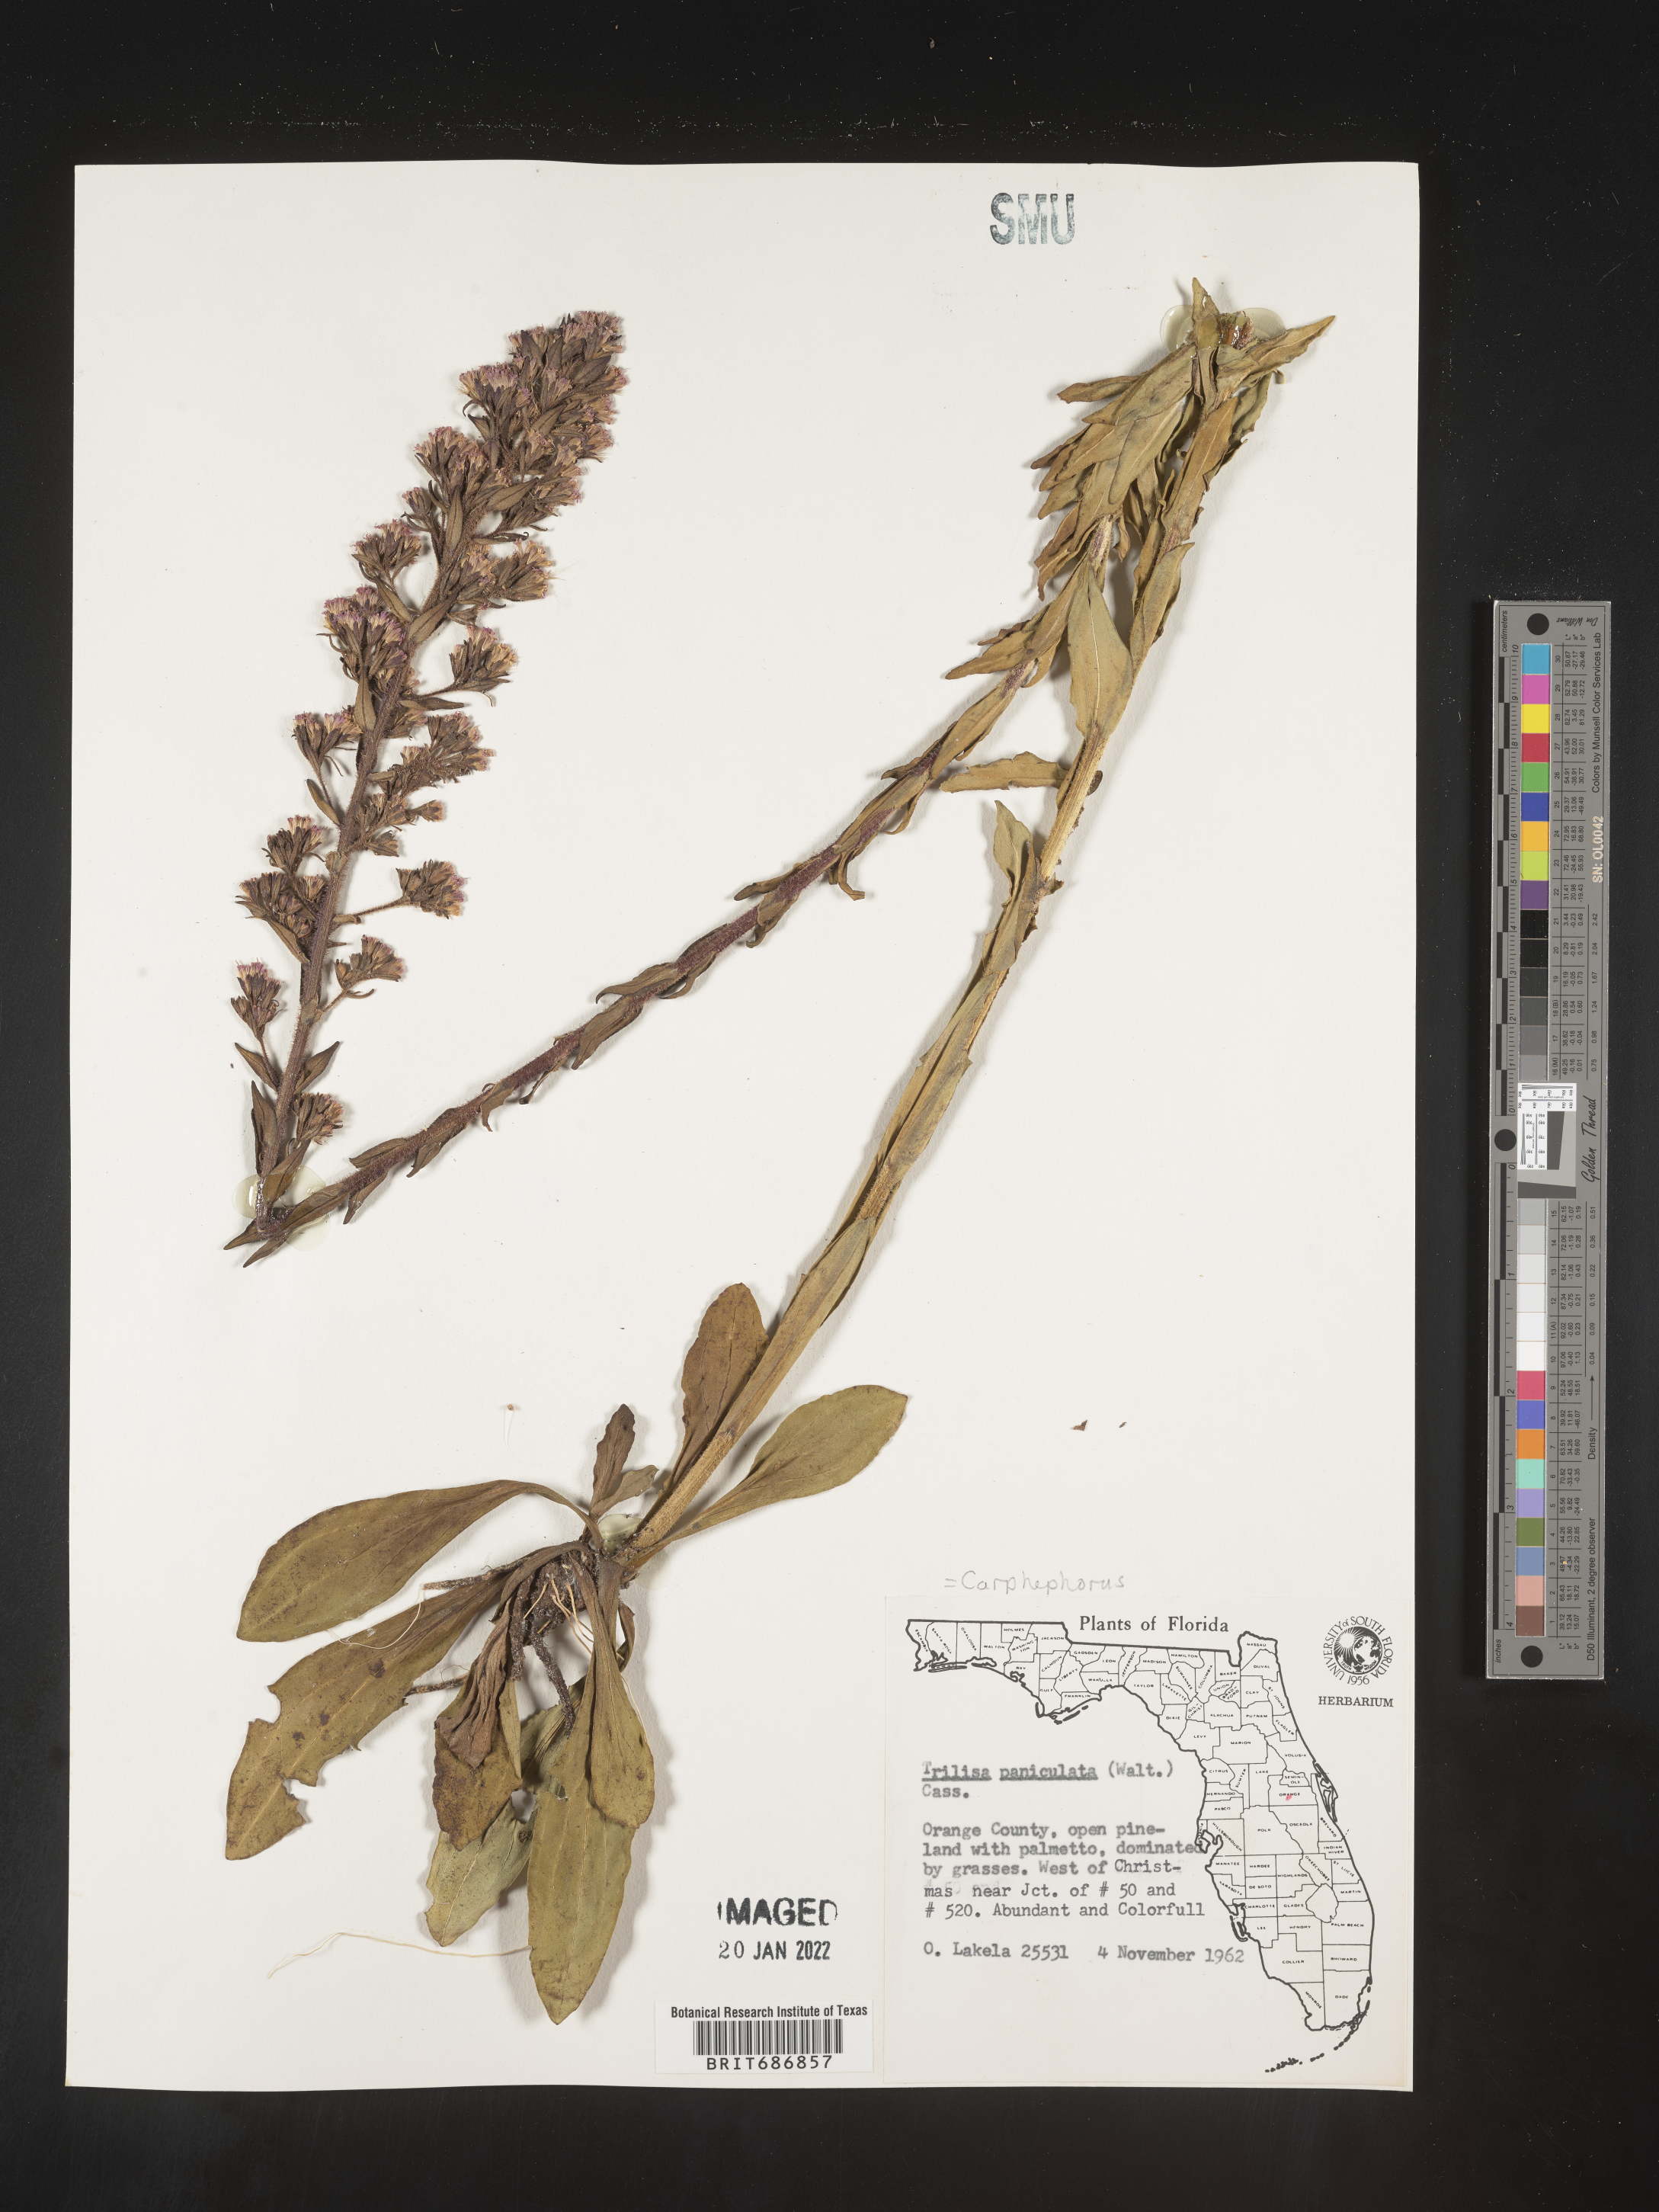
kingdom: Plantae
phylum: Tracheophyta
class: Magnoliopsida
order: Asterales
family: Asteraceae
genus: Carphephorus
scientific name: Carphephorus paniculatus
